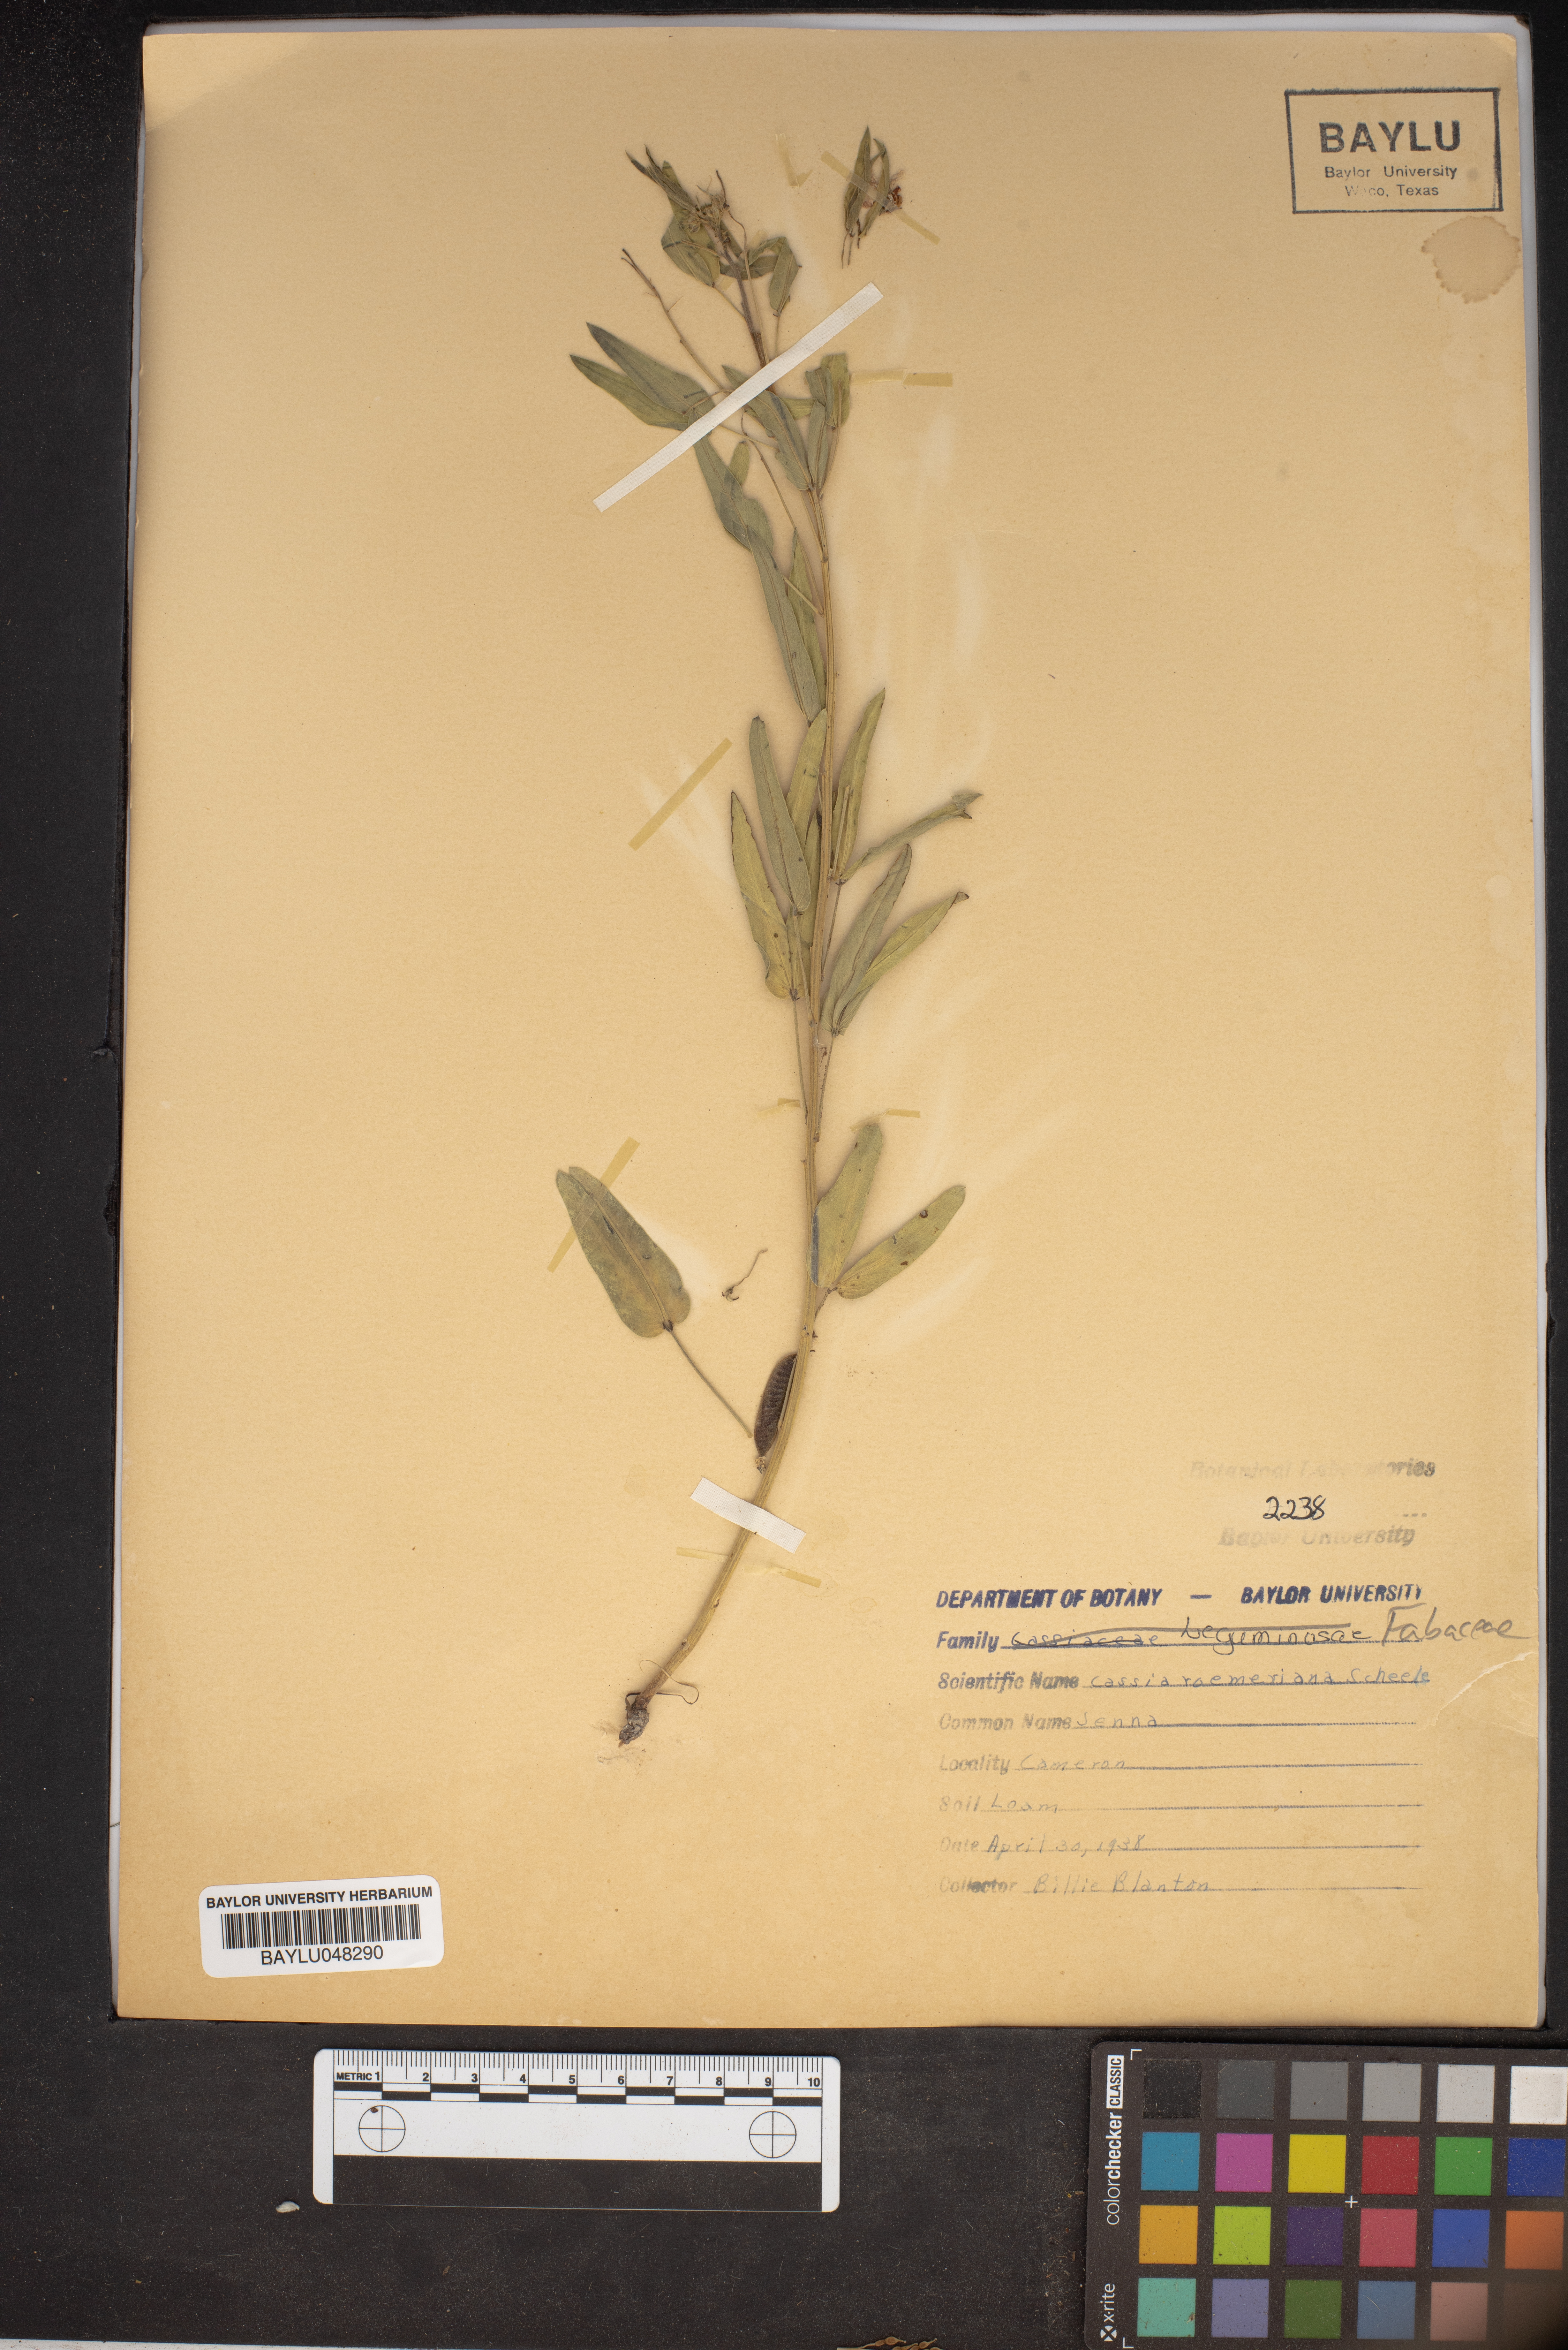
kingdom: Plantae
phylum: Tracheophyta
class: Magnoliopsida
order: Fabales
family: Fabaceae
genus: Senna
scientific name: Senna roemeriana
